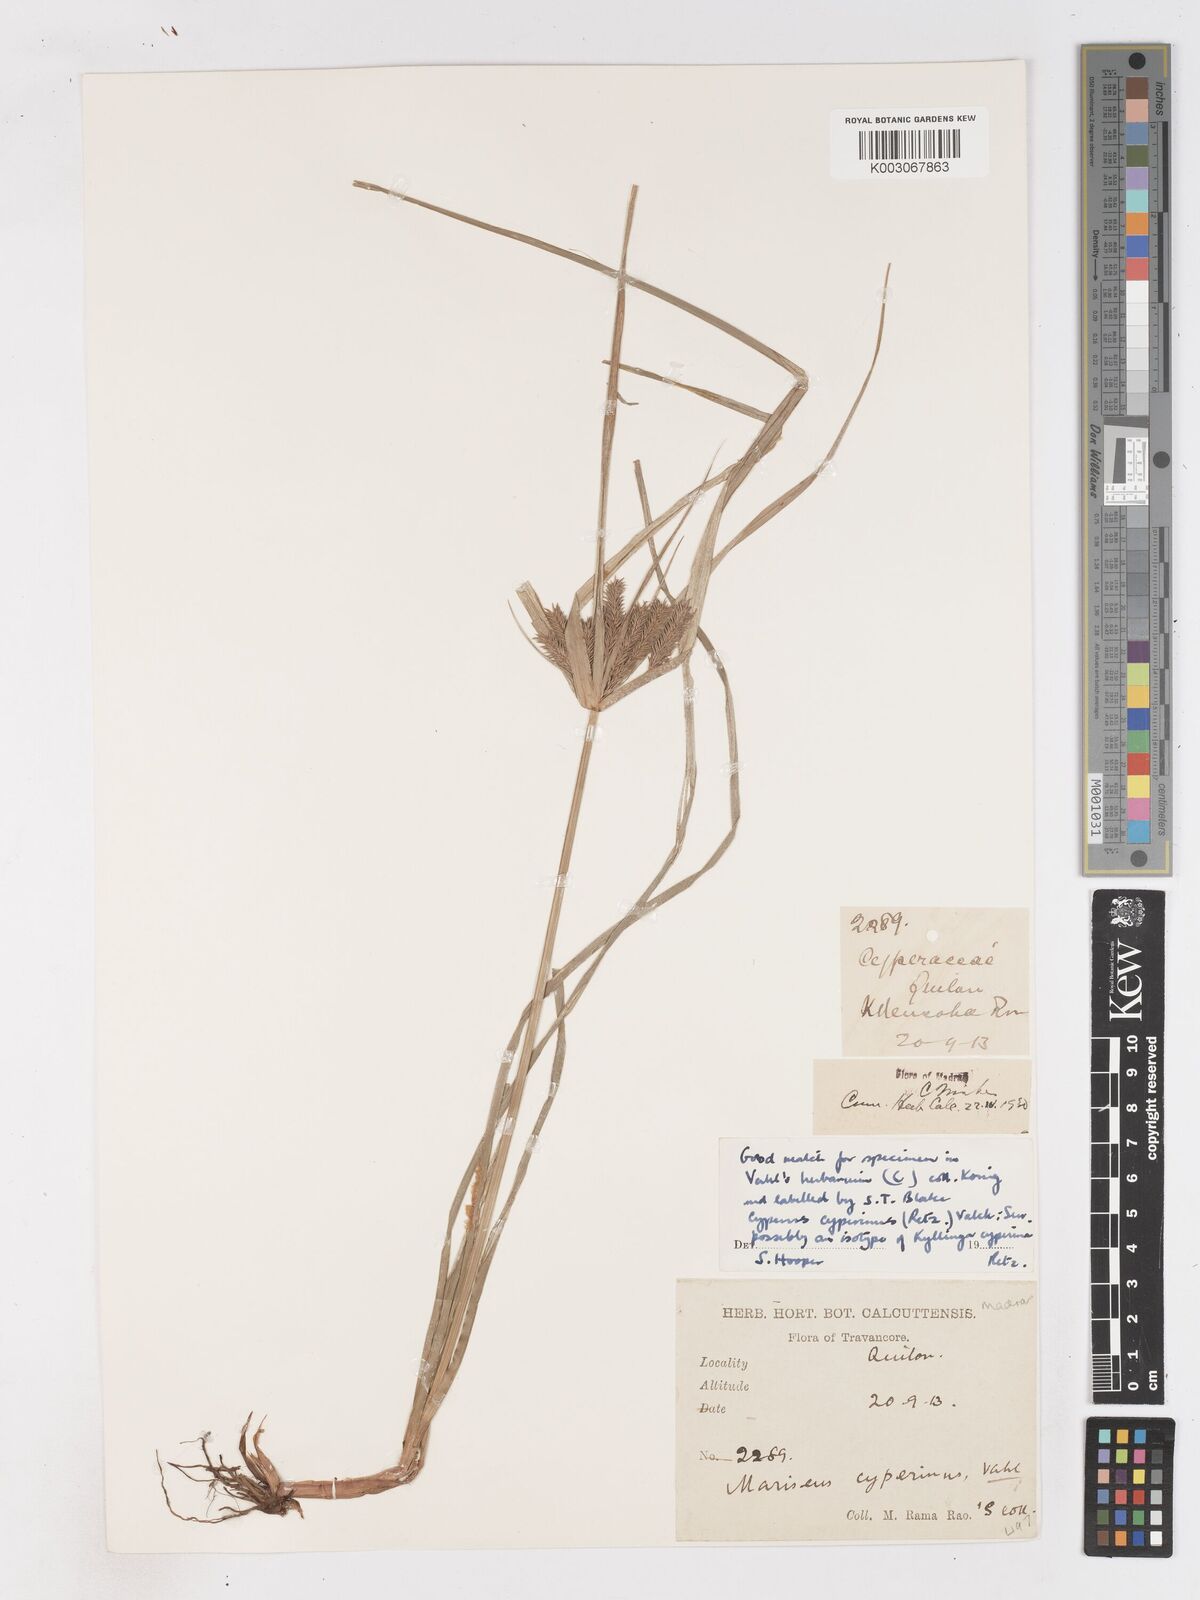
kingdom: Plantae
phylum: Tracheophyta
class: Liliopsida
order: Poales
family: Cyperaceae
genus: Cyperus
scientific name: Cyperus cyperinus
